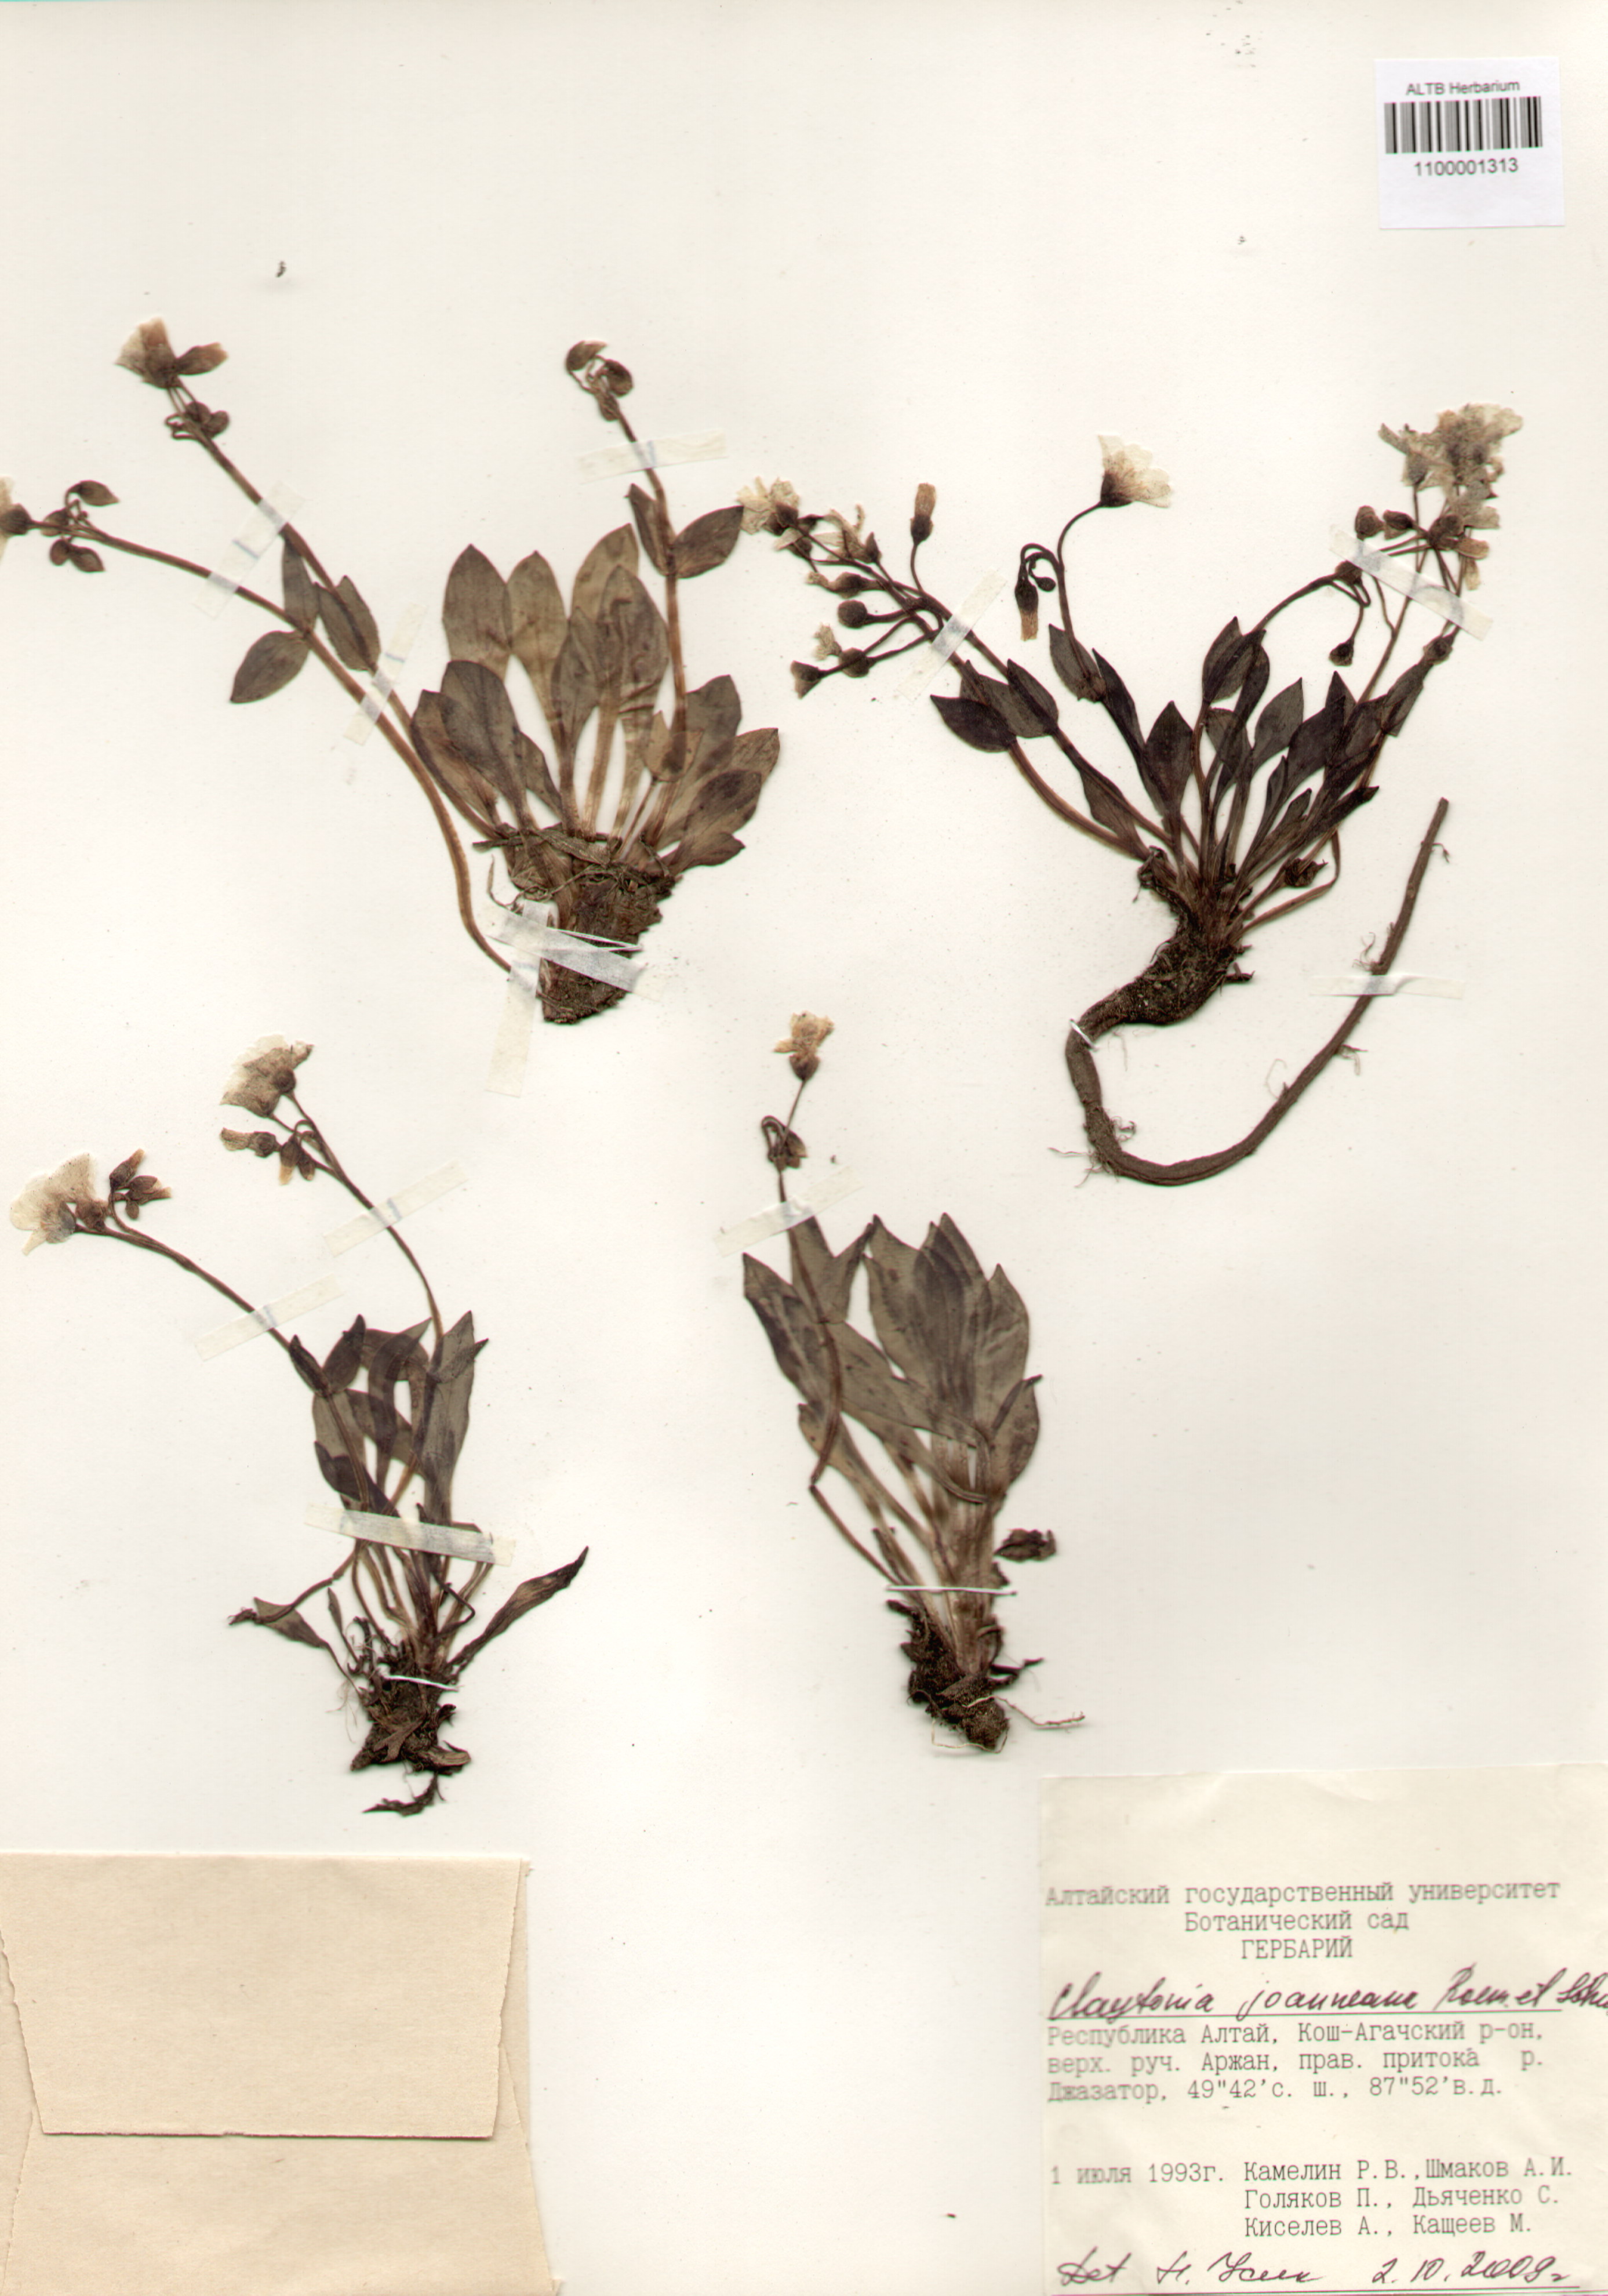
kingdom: Plantae
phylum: Tracheophyta
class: Magnoliopsida
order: Caryophyllales
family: Montiaceae
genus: Claytonia
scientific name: Claytonia joanneana
